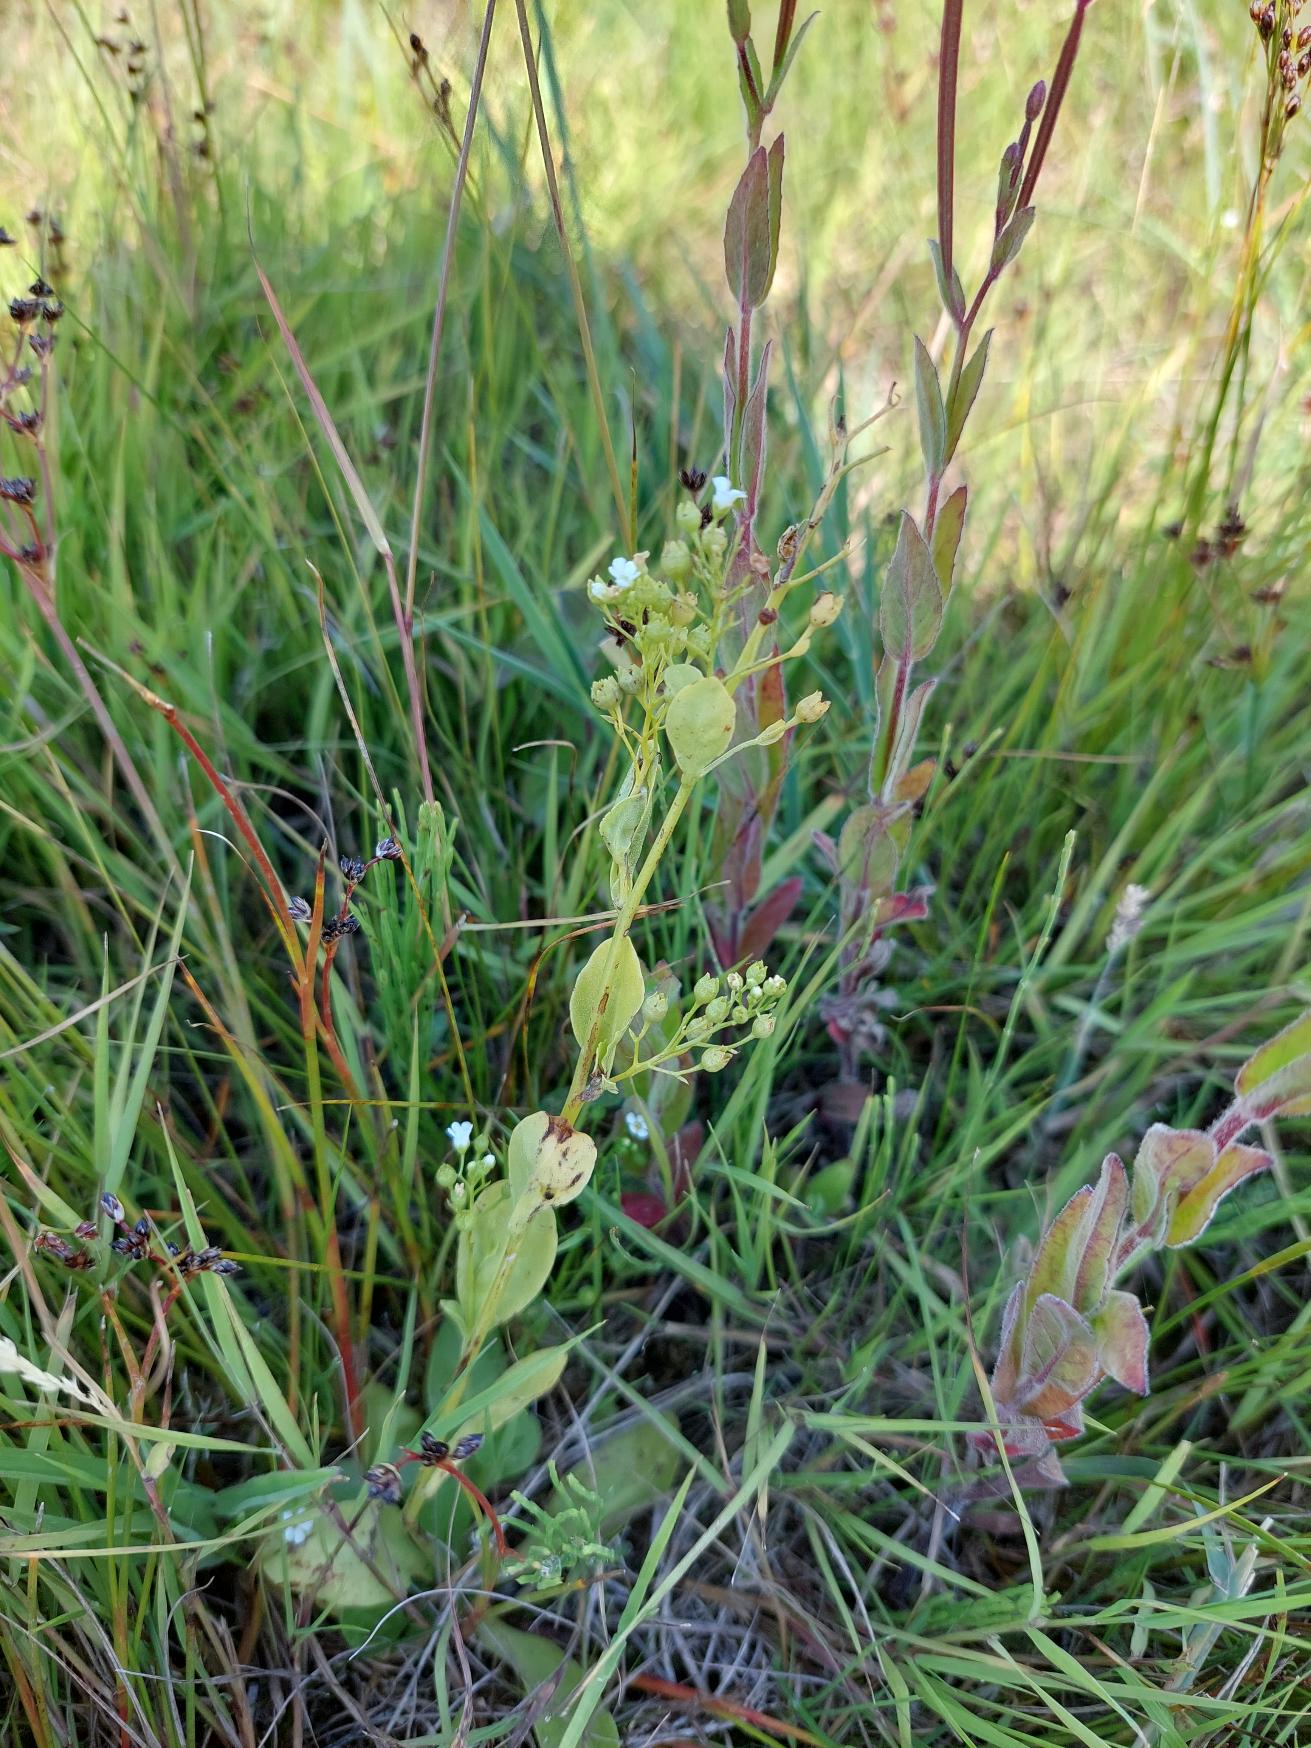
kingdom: Plantae
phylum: Tracheophyta
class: Magnoliopsida
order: Ericales
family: Primulaceae
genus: Samolus
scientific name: Samolus valerandi
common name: Samel
